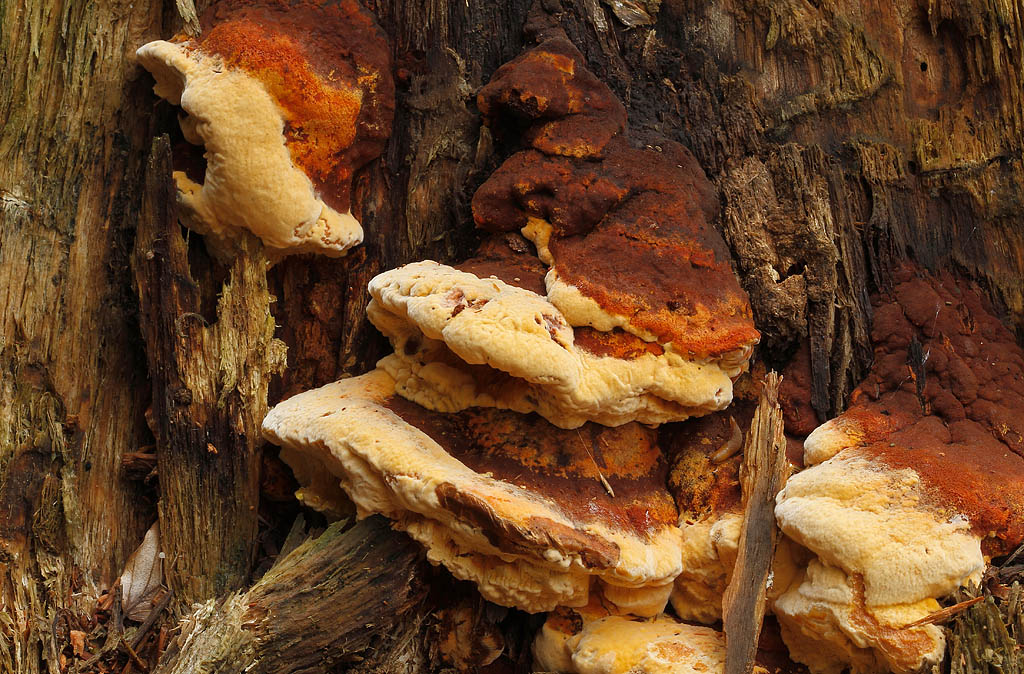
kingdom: Fungi
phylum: Basidiomycota
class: Agaricomycetes
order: Gloeophyllales
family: Gloeophyllaceae
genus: Gloeophyllum
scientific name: Gloeophyllum odoratum
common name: duftende korkhat
